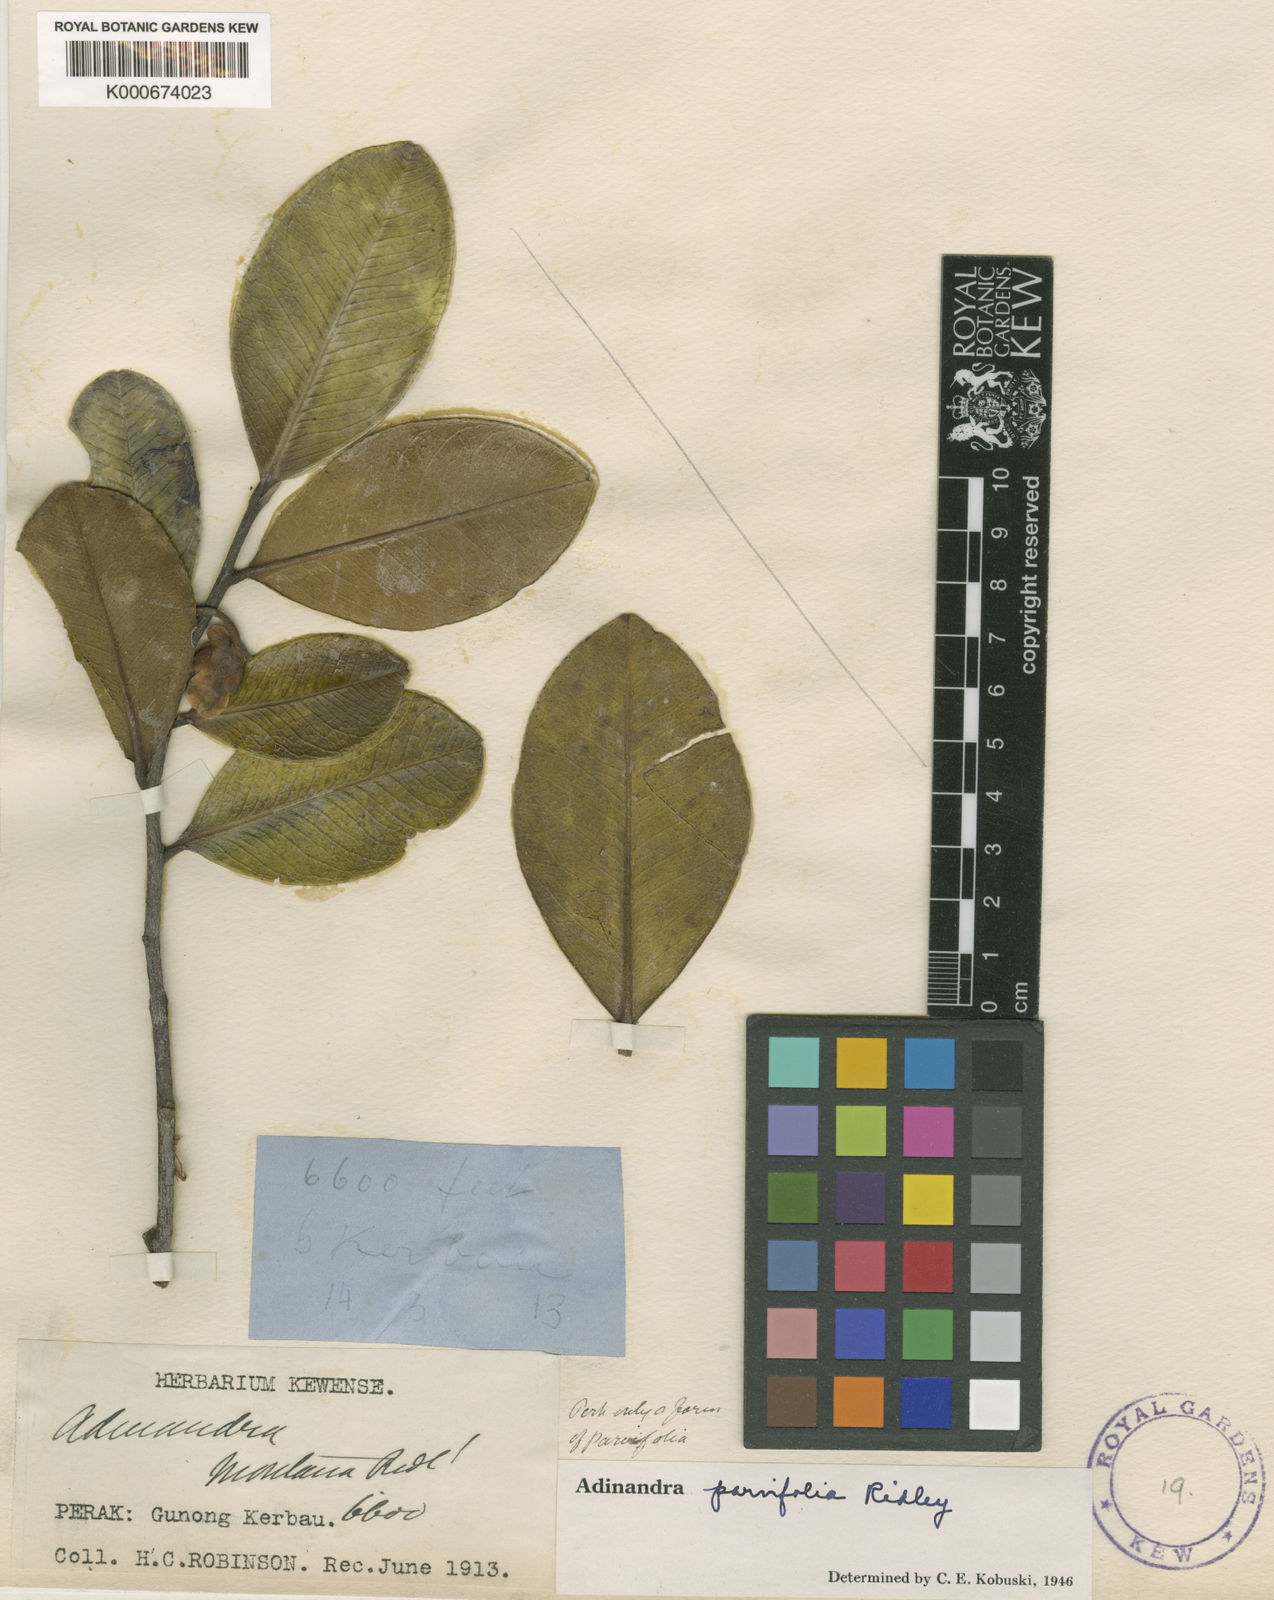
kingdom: Plantae
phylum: Tracheophyta
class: Magnoliopsida
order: Ericales
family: Pentaphylacaceae
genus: Adinandra
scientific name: Adinandra
